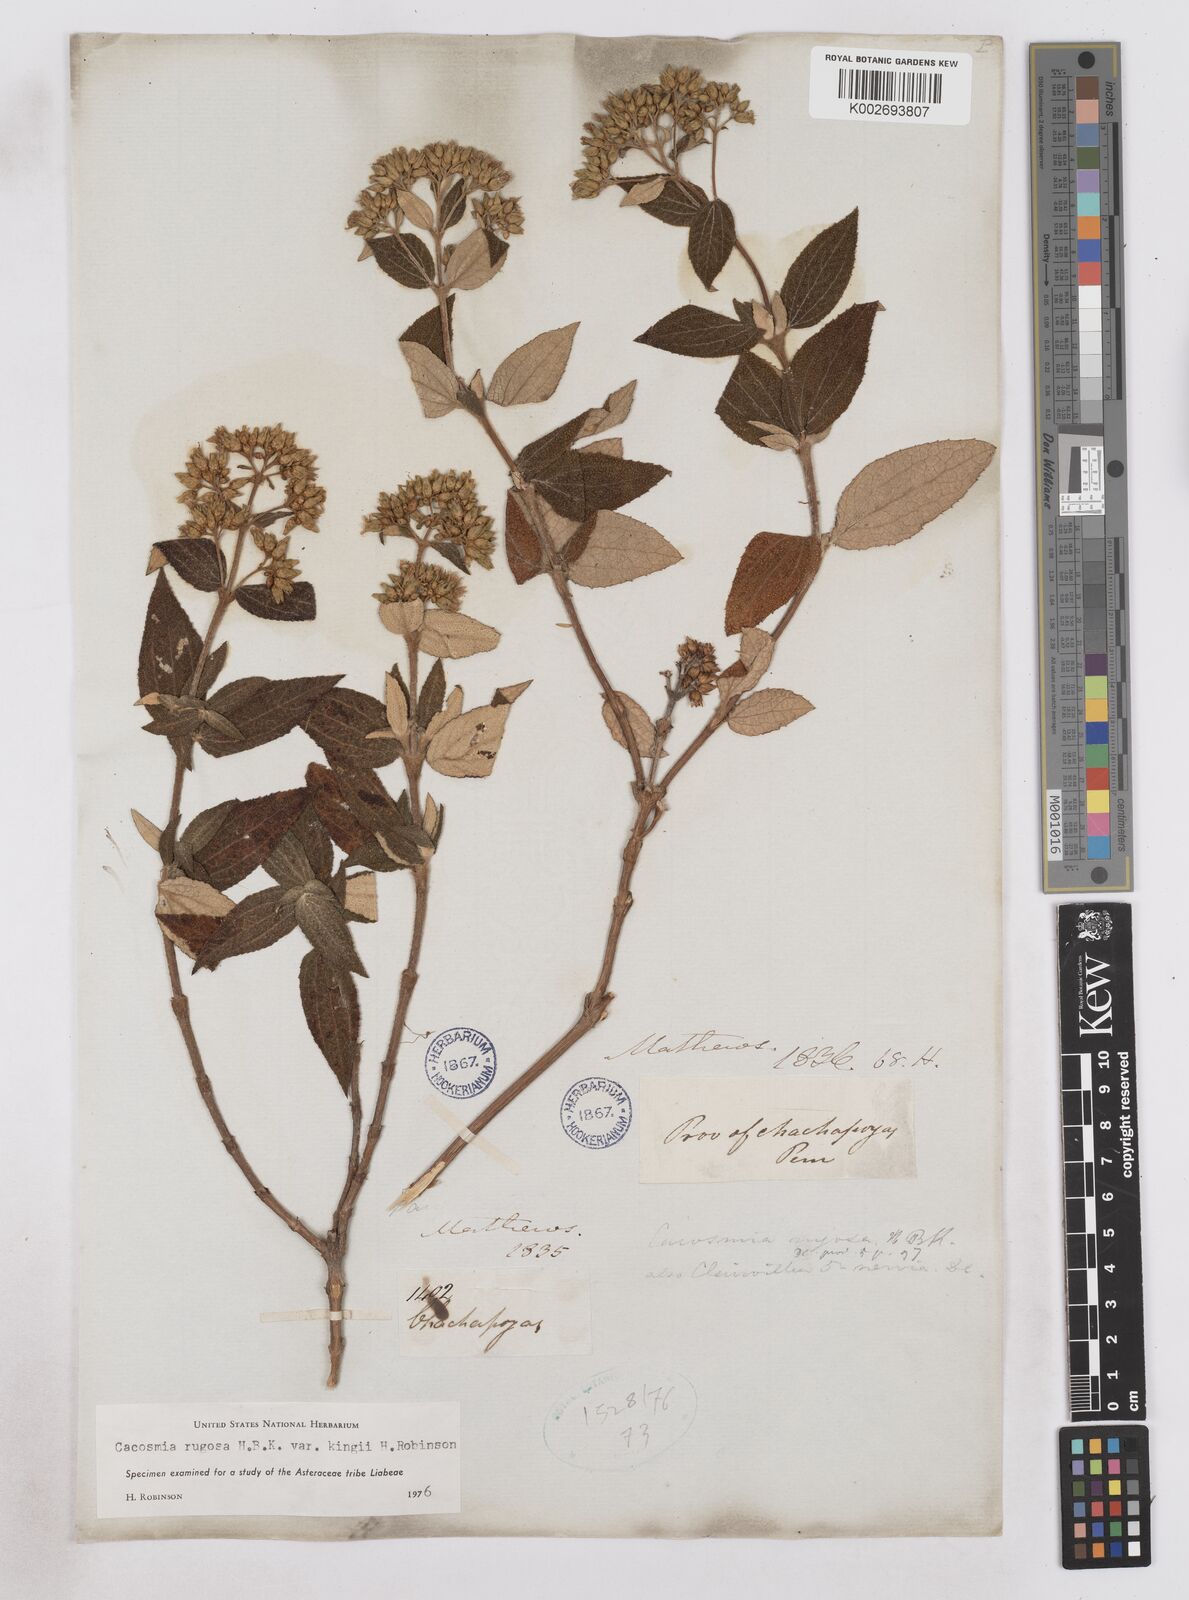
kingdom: Plantae
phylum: Tracheophyta
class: Magnoliopsida
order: Asterales
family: Asteraceae
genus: Cacosmia
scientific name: Cacosmia rugosa
